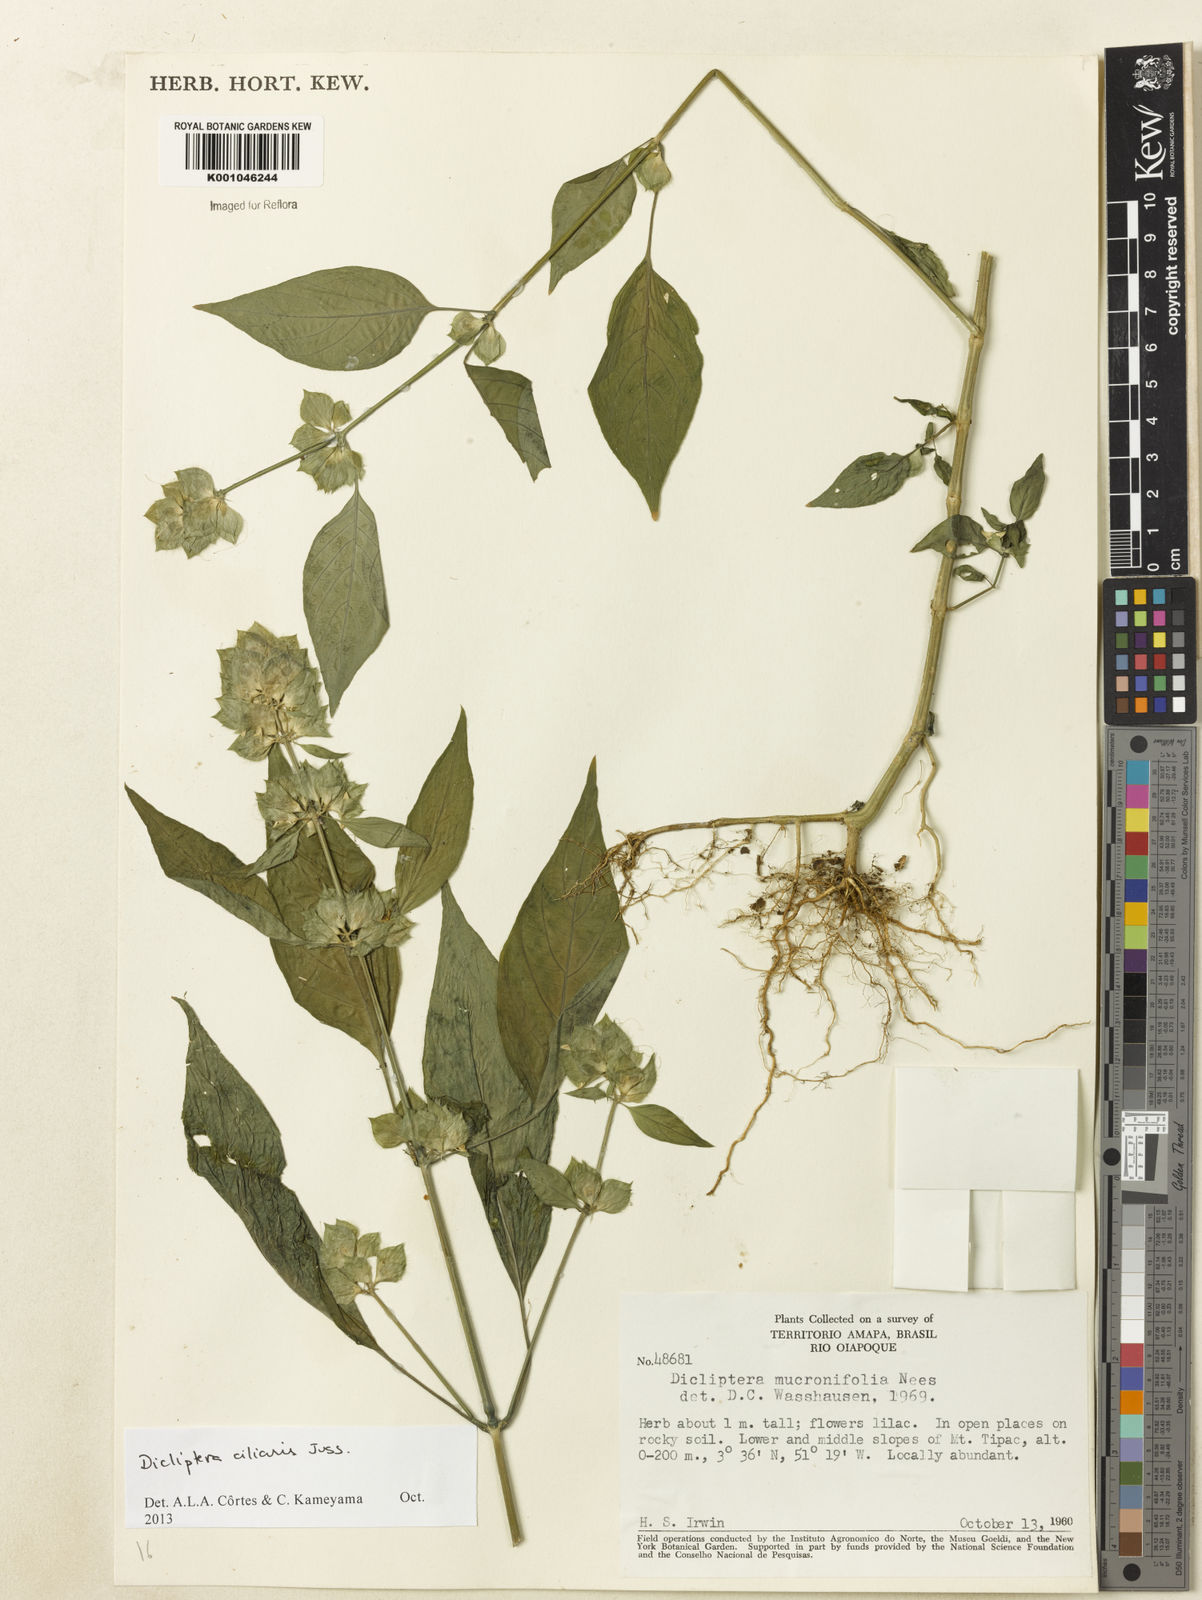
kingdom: Plantae
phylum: Tracheophyta
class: Magnoliopsida
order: Lamiales
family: Acanthaceae
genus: Dicliptera
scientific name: Dicliptera ciliaris
